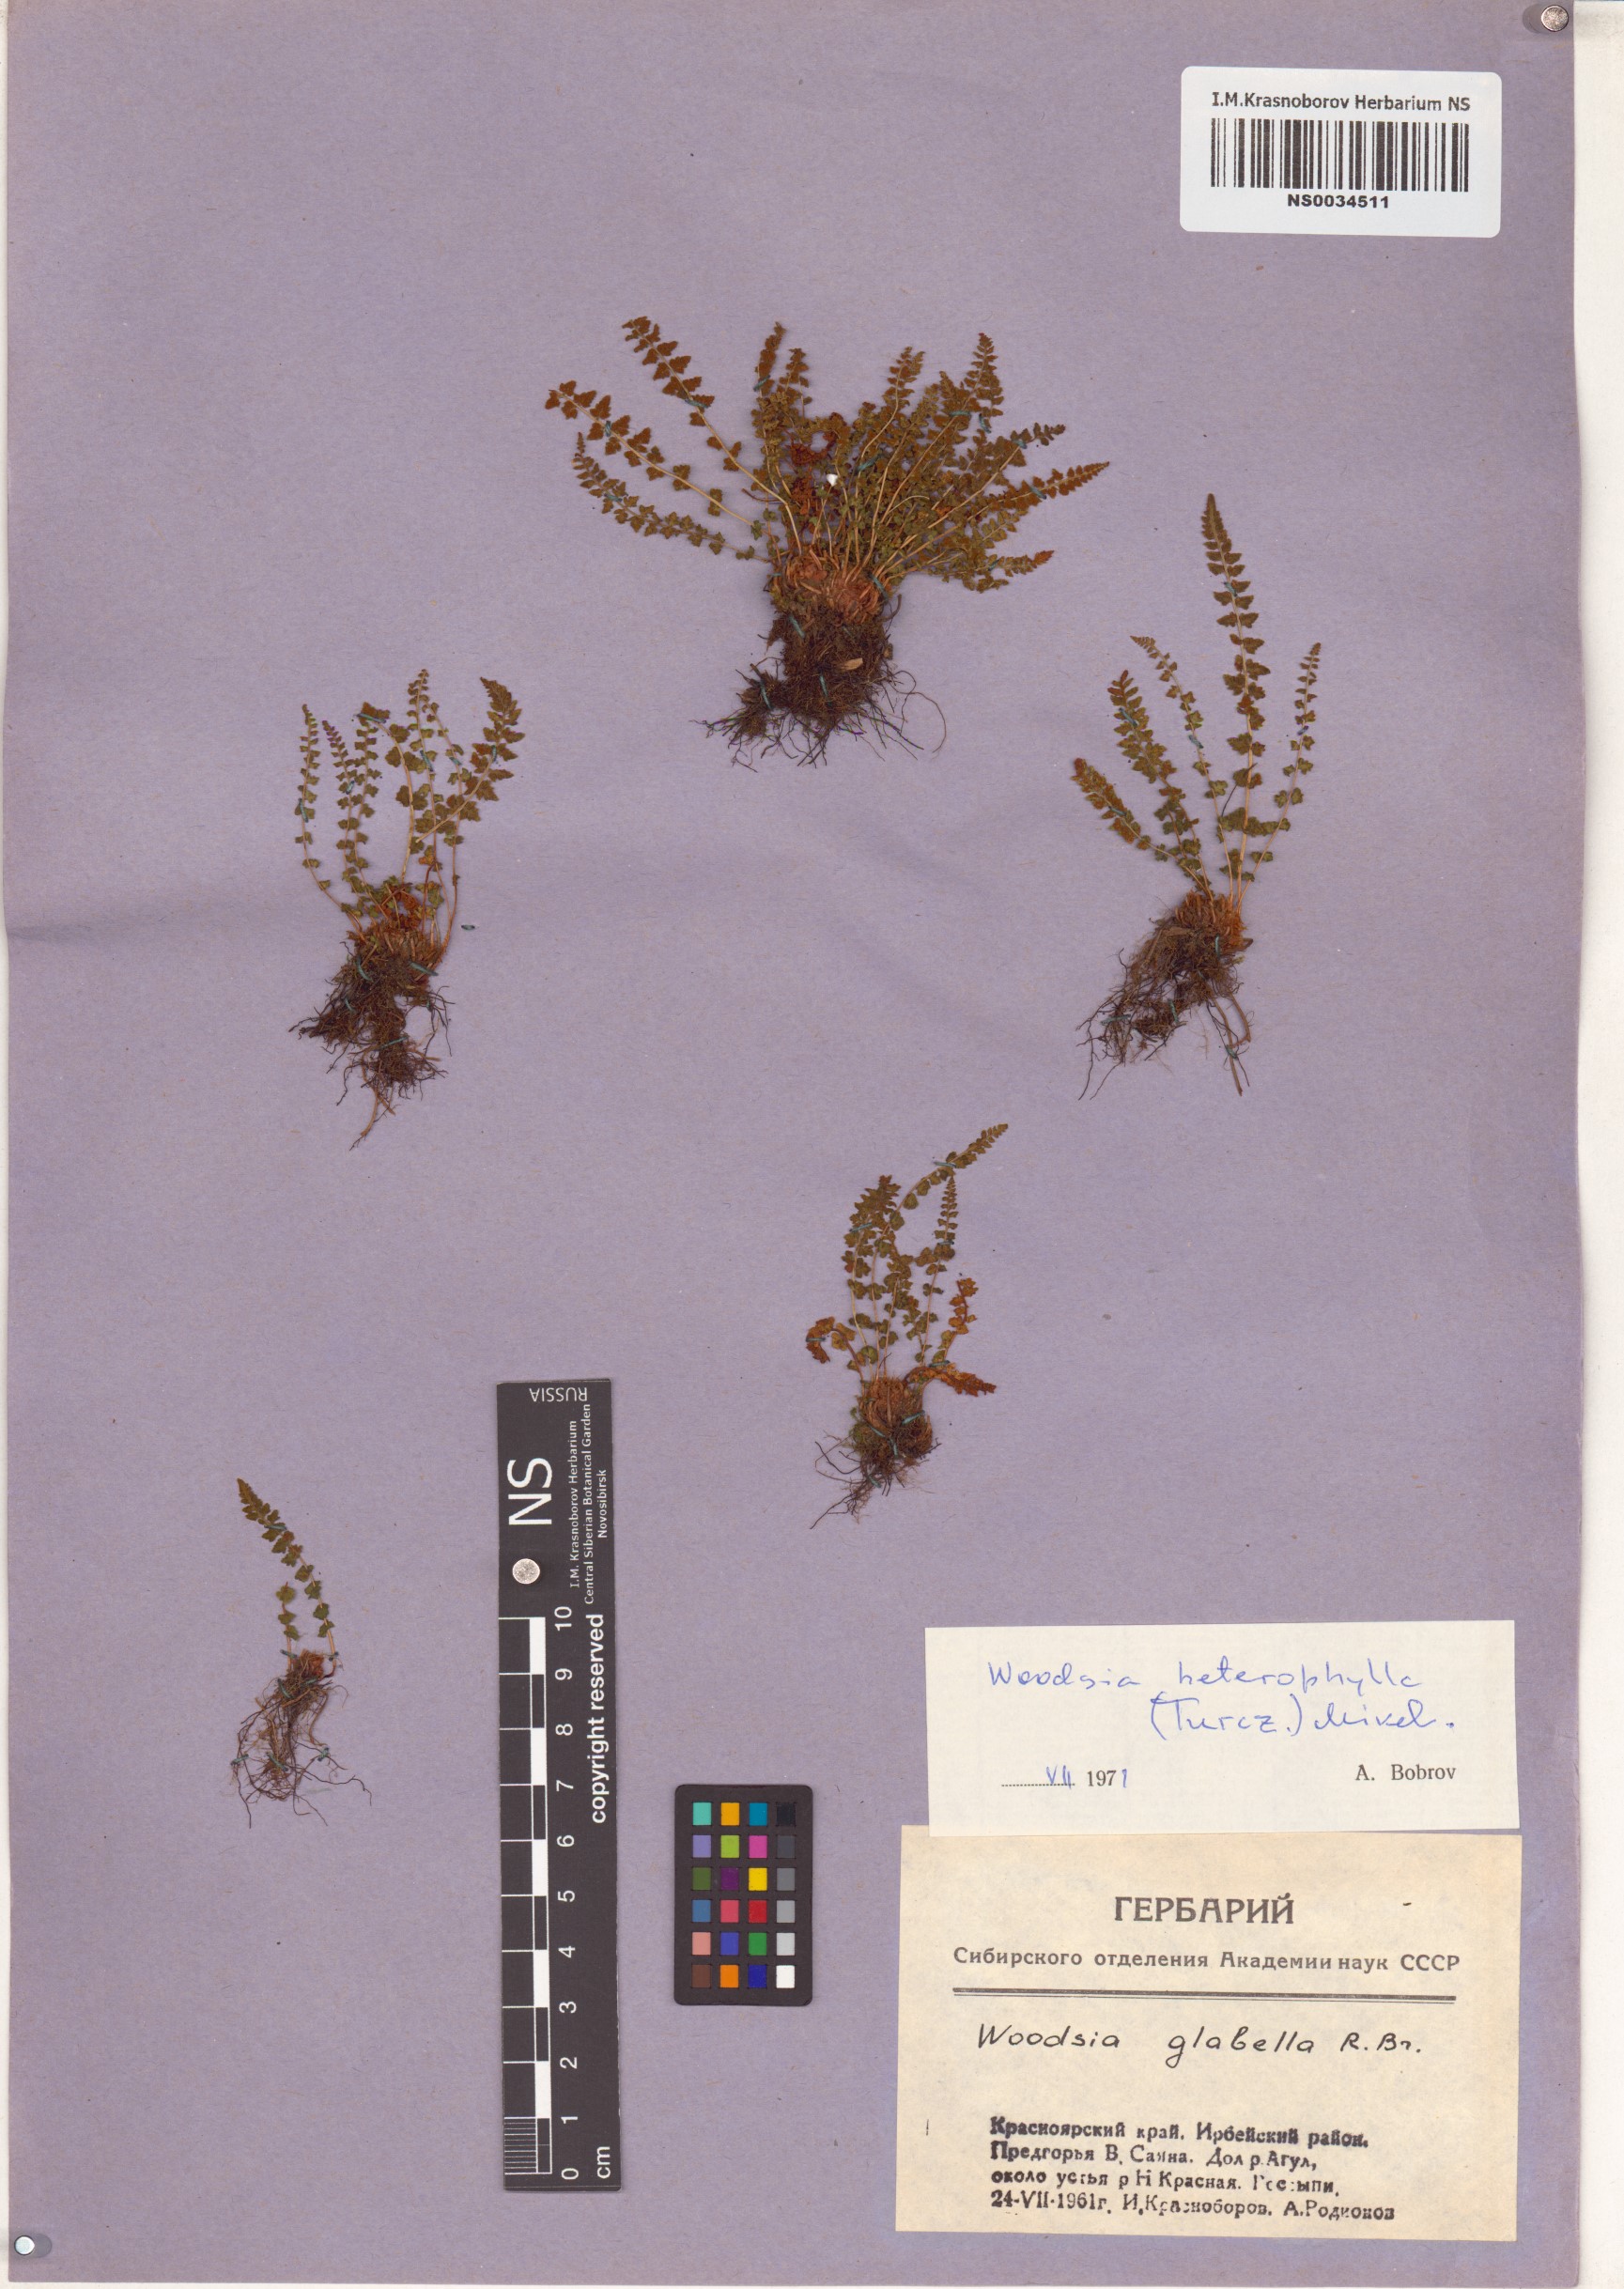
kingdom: Plantae
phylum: Tracheophyta
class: Polypodiopsida
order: Polypodiales
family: Woodsiaceae
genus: Woodsia
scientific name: Woodsia pulchella
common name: Graceful woodsia
